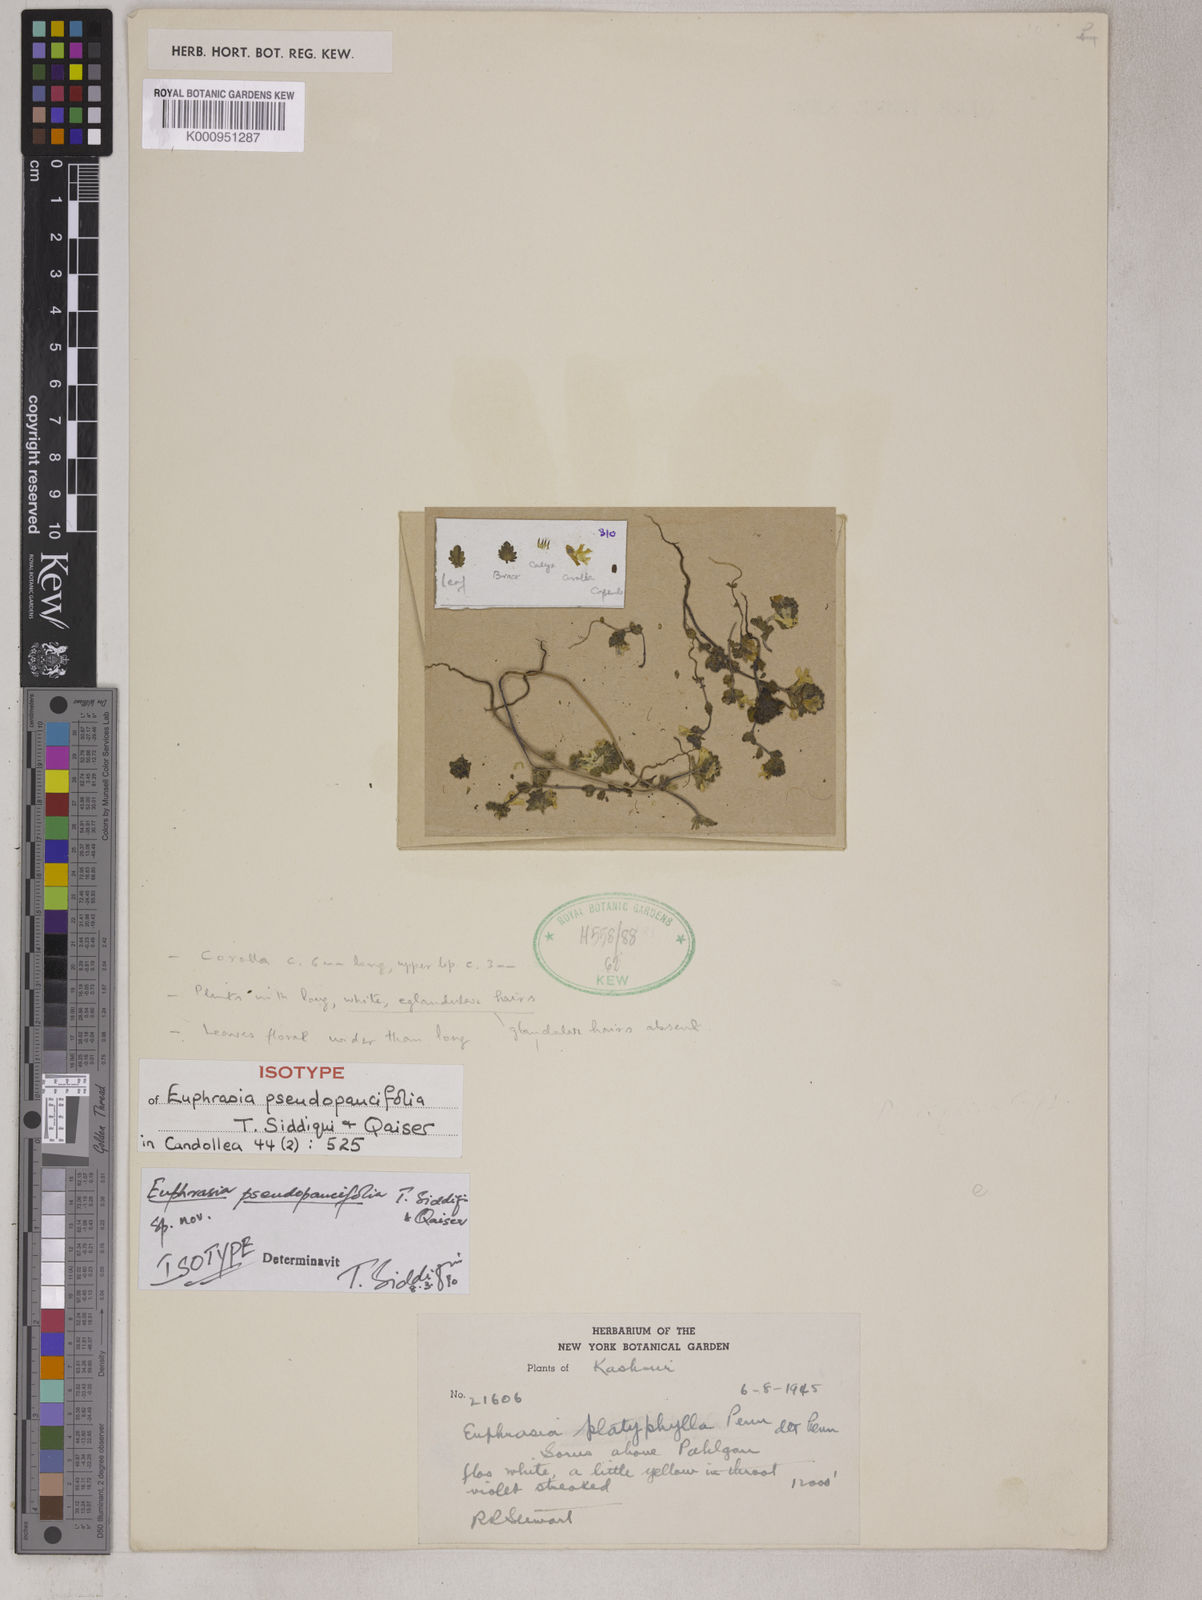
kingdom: Plantae
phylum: Tracheophyta
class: Magnoliopsida
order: Lamiales
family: Orobanchaceae
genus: Euphrasia
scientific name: Euphrasia pseudopaucifolia
